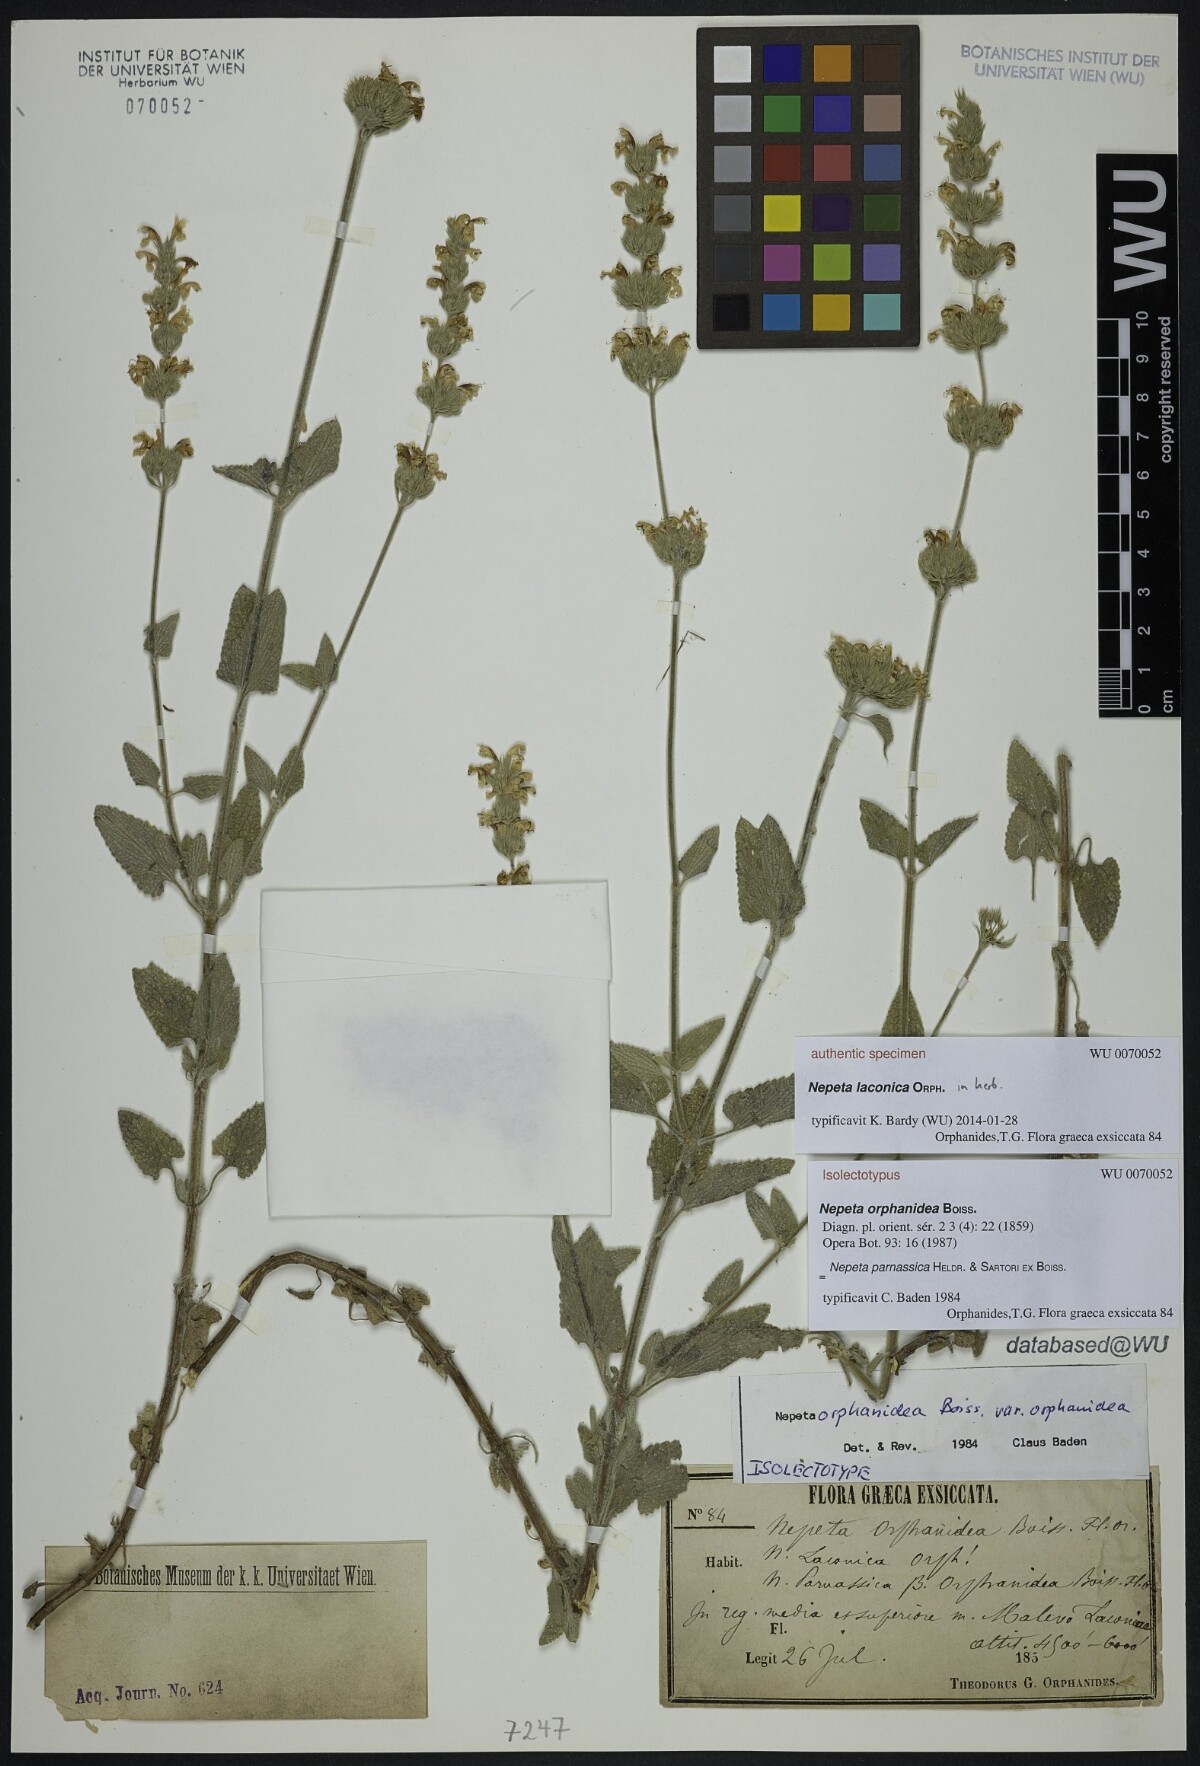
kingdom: Plantae
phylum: Tracheophyta
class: Magnoliopsida
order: Lamiales
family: Lamiaceae
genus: Nepeta
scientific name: Nepeta orphanidea
